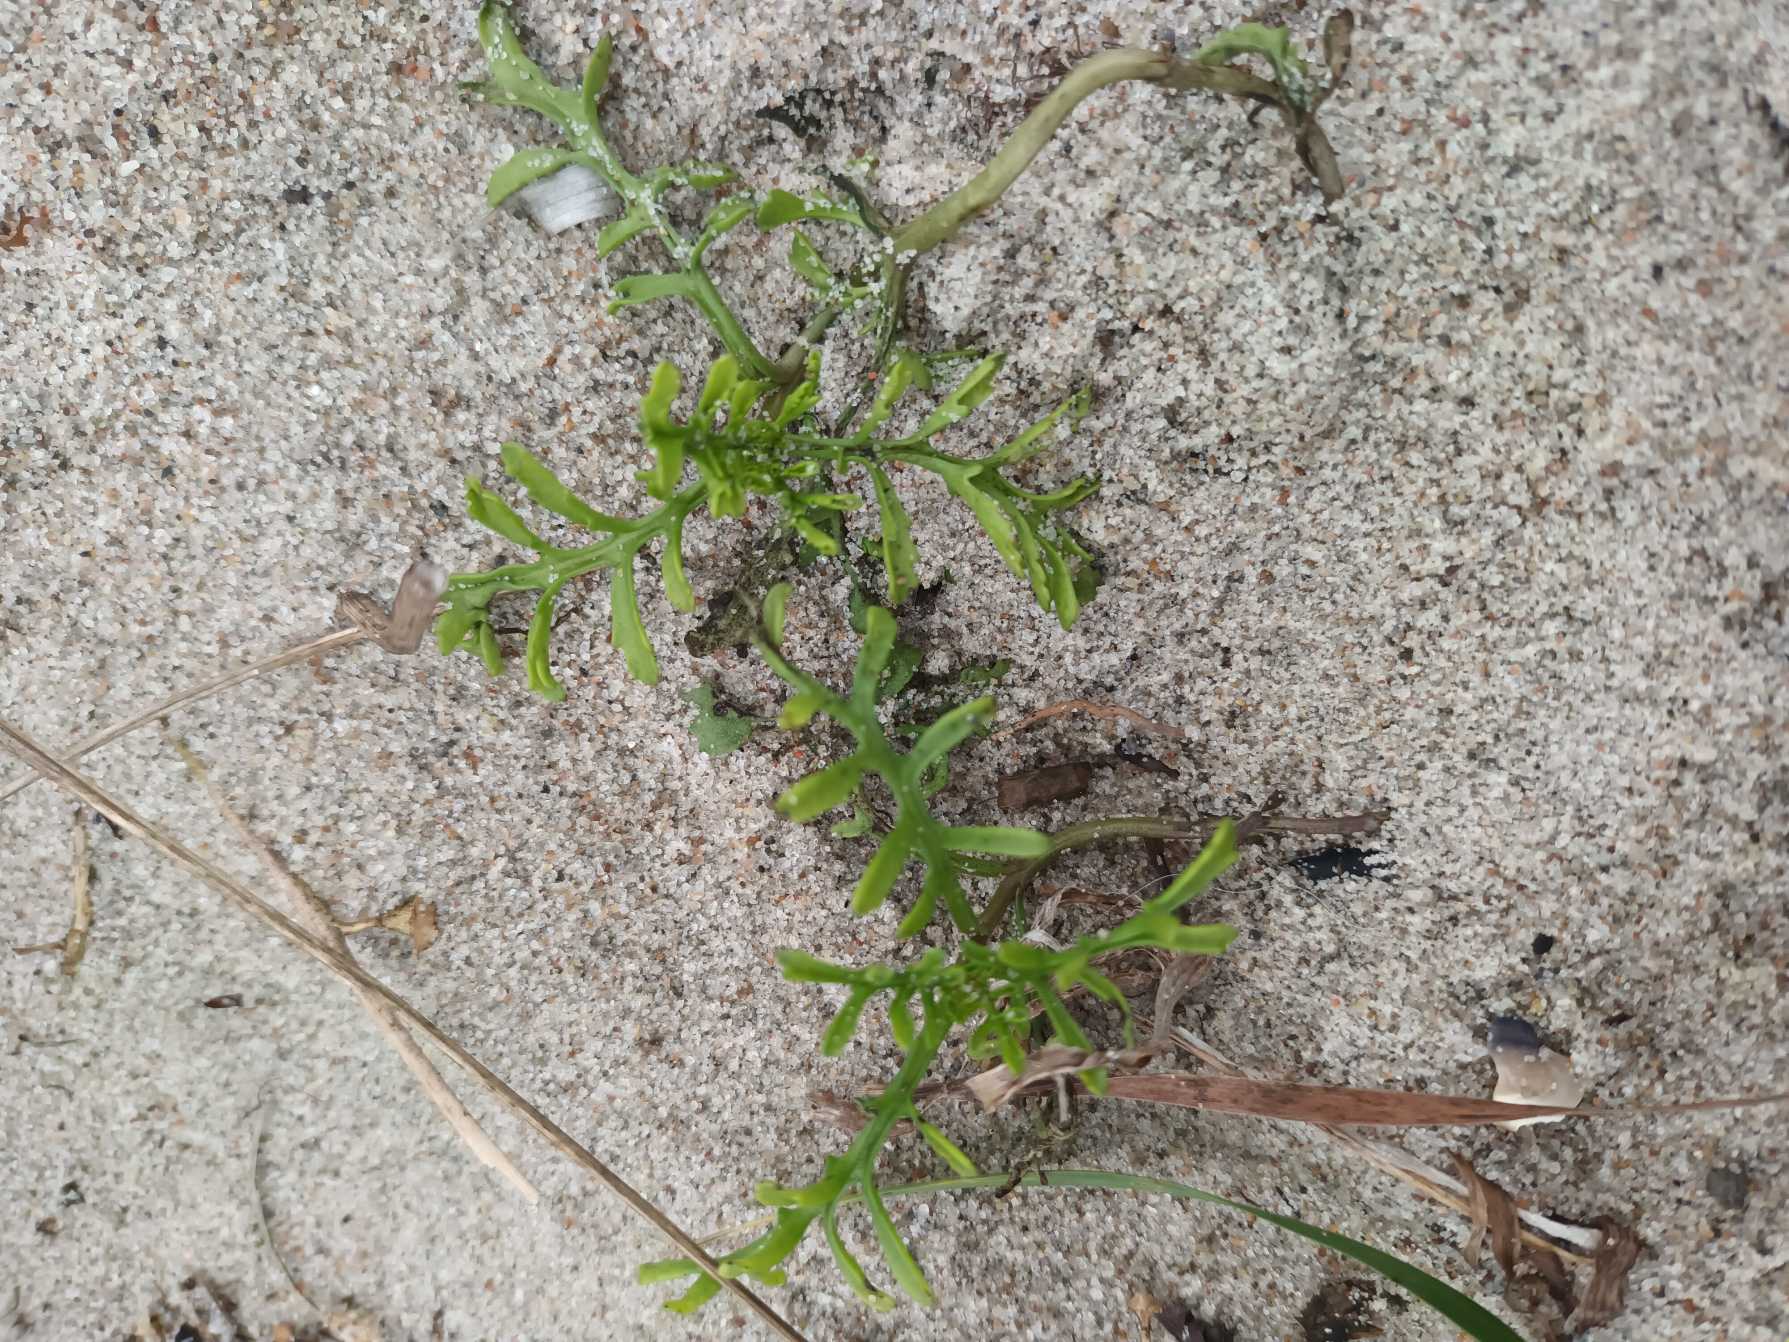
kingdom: Plantae
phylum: Tracheophyta
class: Magnoliopsida
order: Brassicales
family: Brassicaceae
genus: Cakile
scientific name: Cakile maritima
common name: Strandsennep
